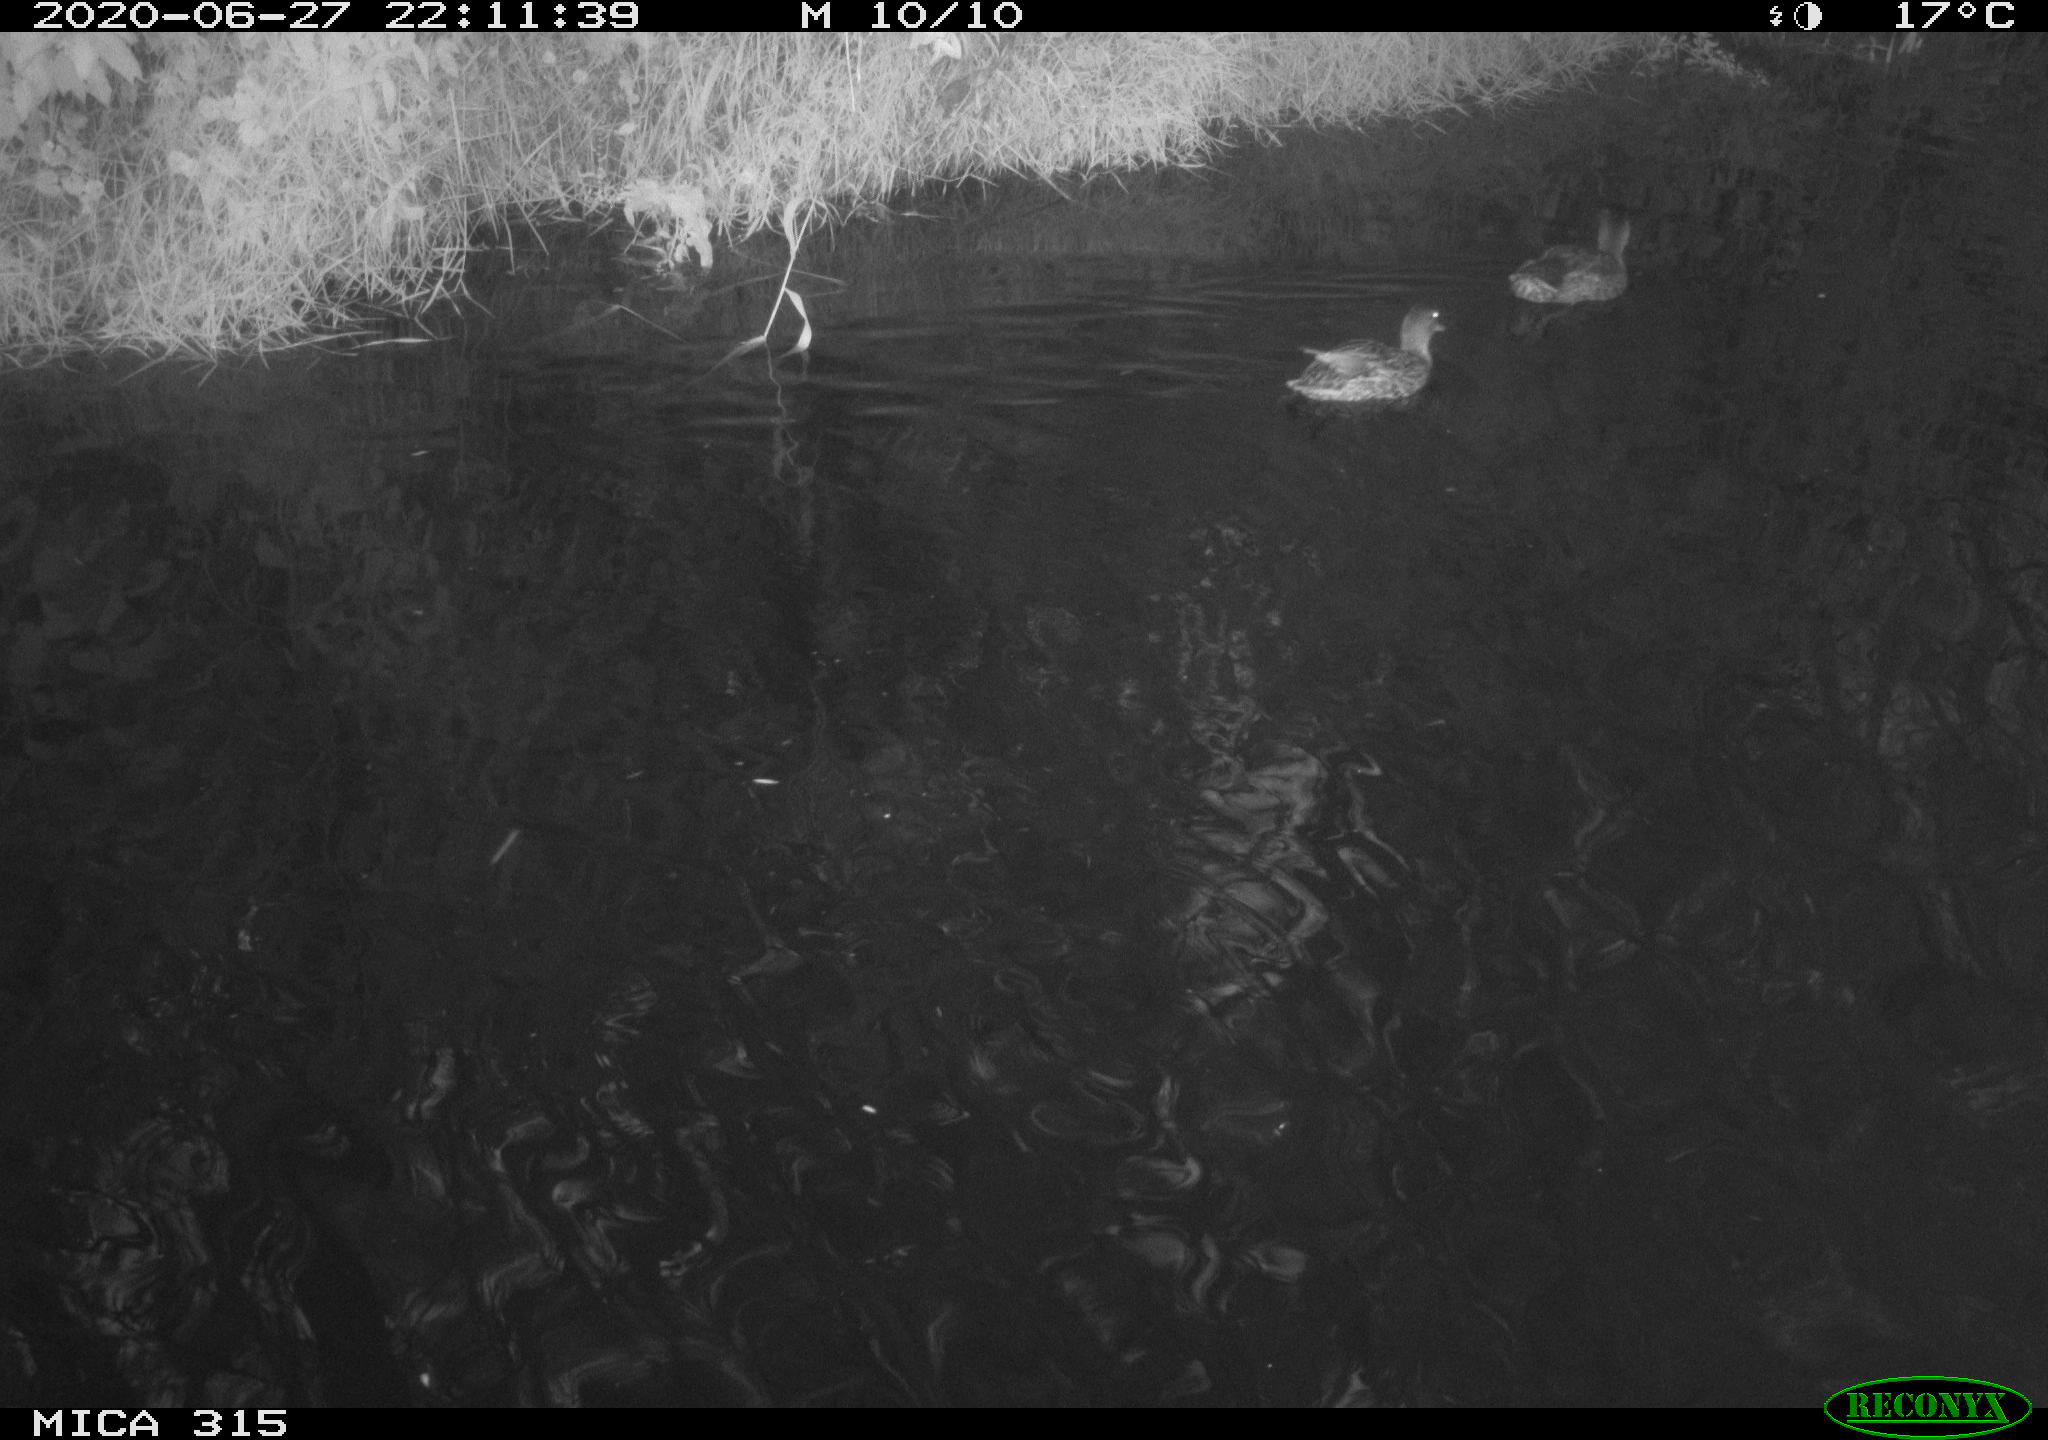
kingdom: Animalia
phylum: Chordata
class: Aves
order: Anseriformes
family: Anatidae
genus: Anas
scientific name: Anas platyrhynchos
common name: Mallard
